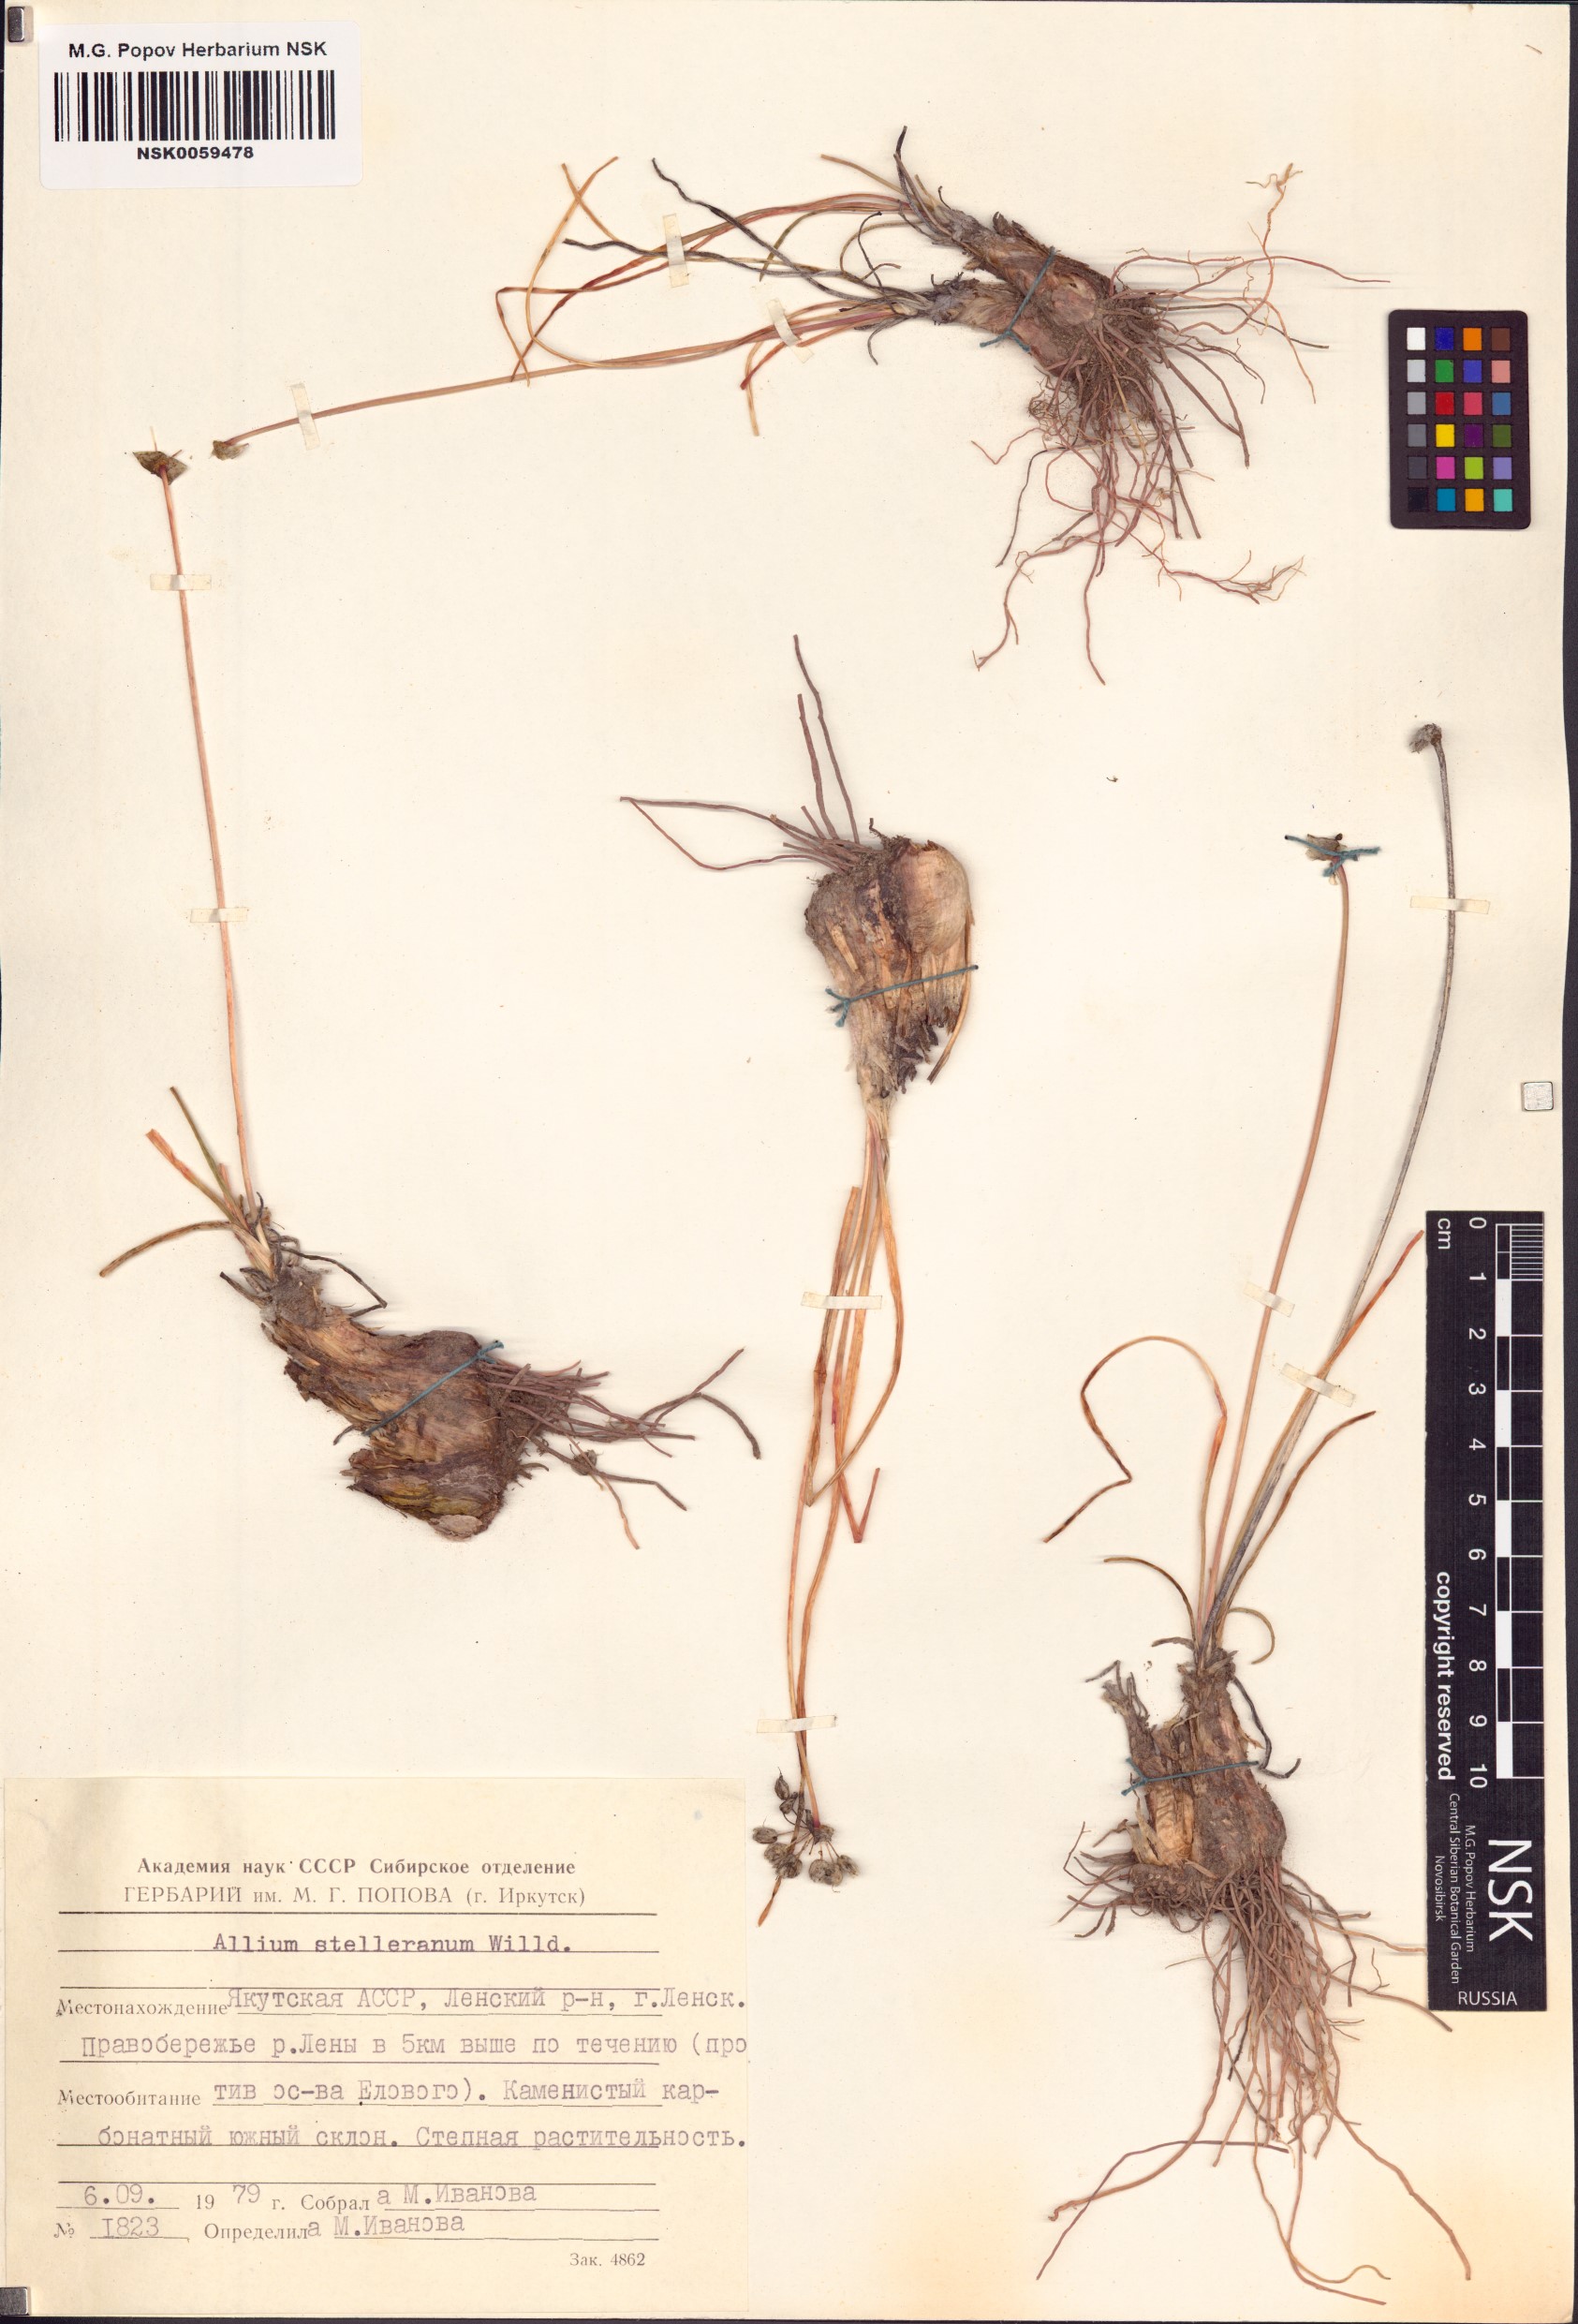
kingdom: Plantae
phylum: Tracheophyta
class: Liliopsida
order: Asparagales
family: Amaryllidaceae
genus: Allium
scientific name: Allium stellerianum
